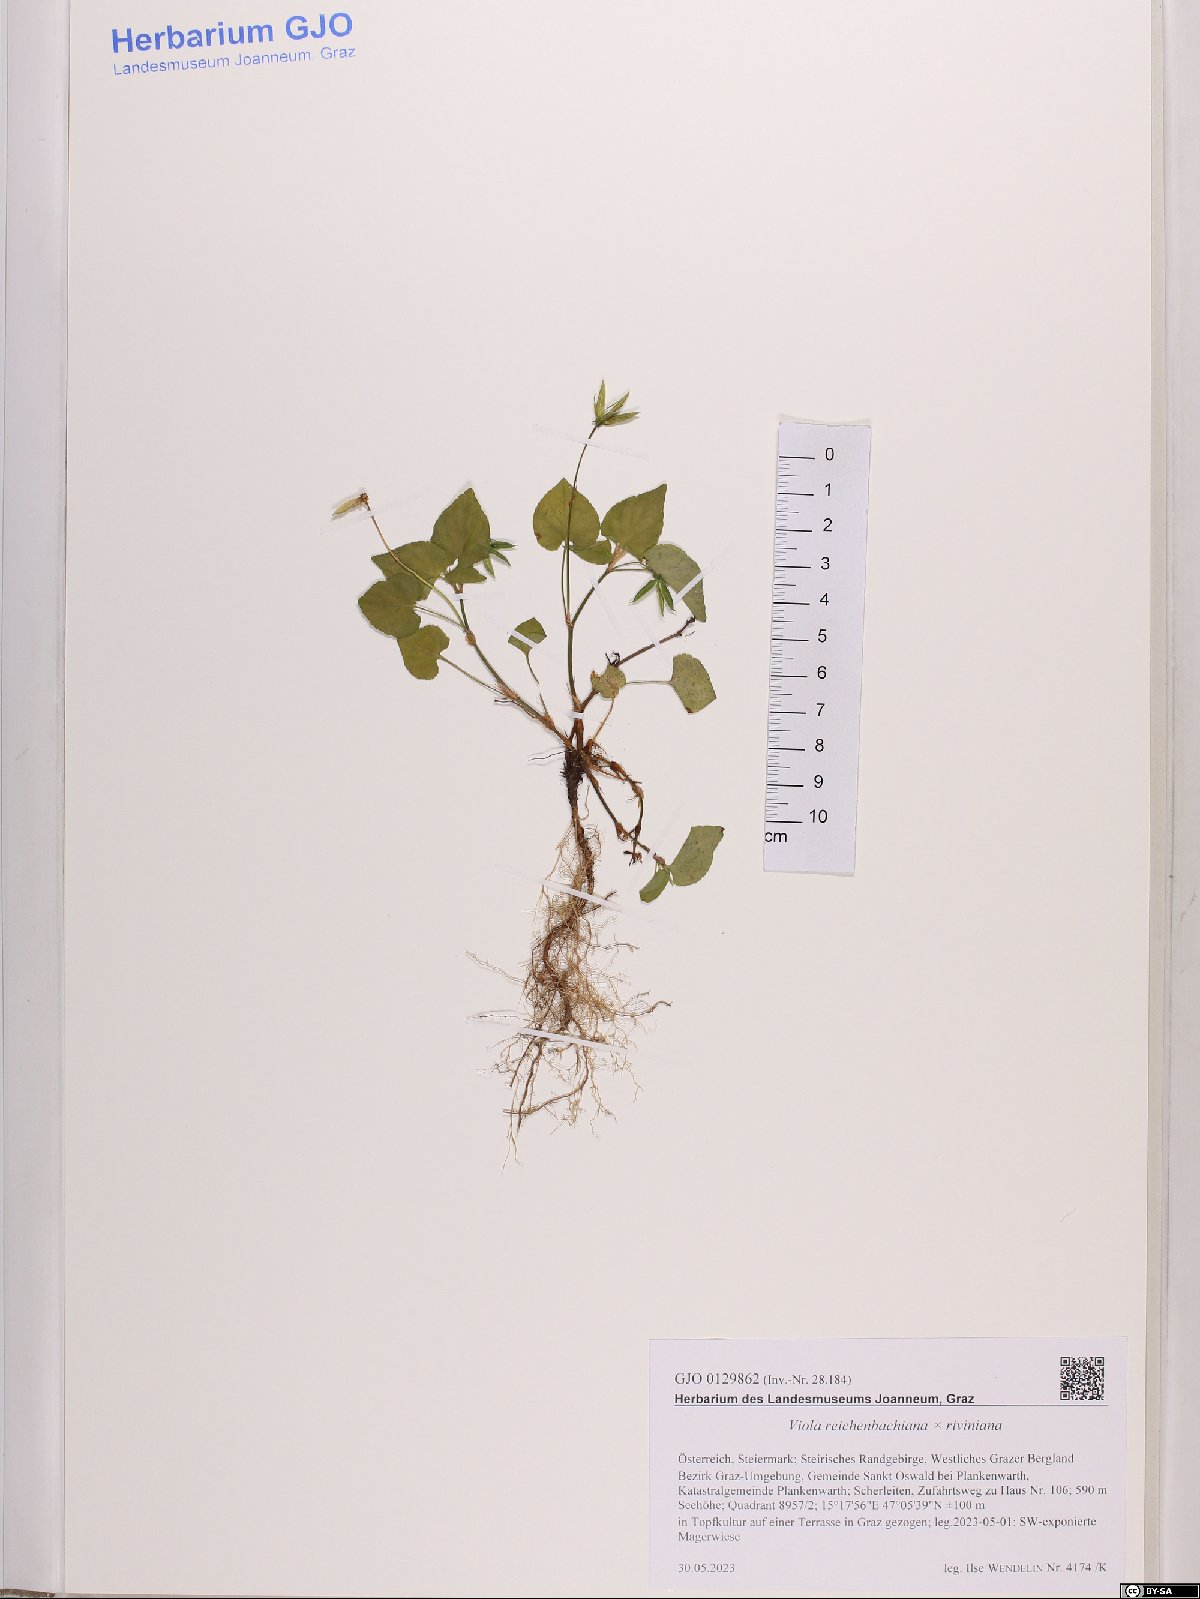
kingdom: Plantae
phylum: Tracheophyta
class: Magnoliopsida
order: Malpighiales
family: Violaceae
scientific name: Violaceae
